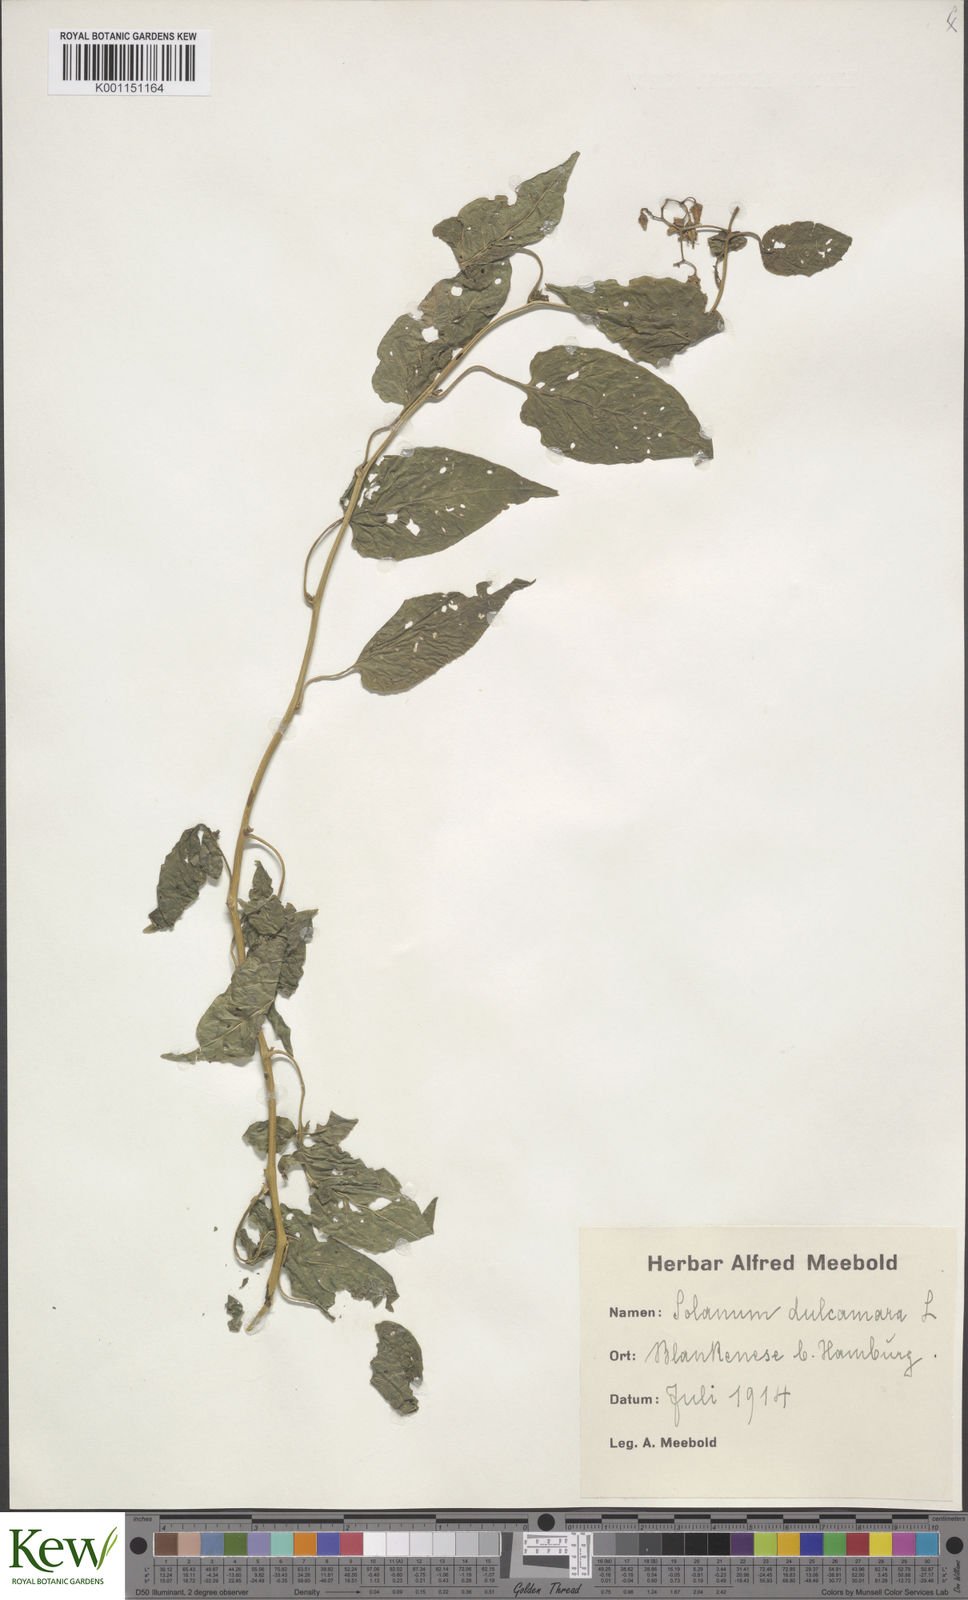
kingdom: Plantae
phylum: Tracheophyta
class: Magnoliopsida
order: Solanales
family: Solanaceae
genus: Solanum
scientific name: Solanum dulcamara
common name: Climbing nightshade
